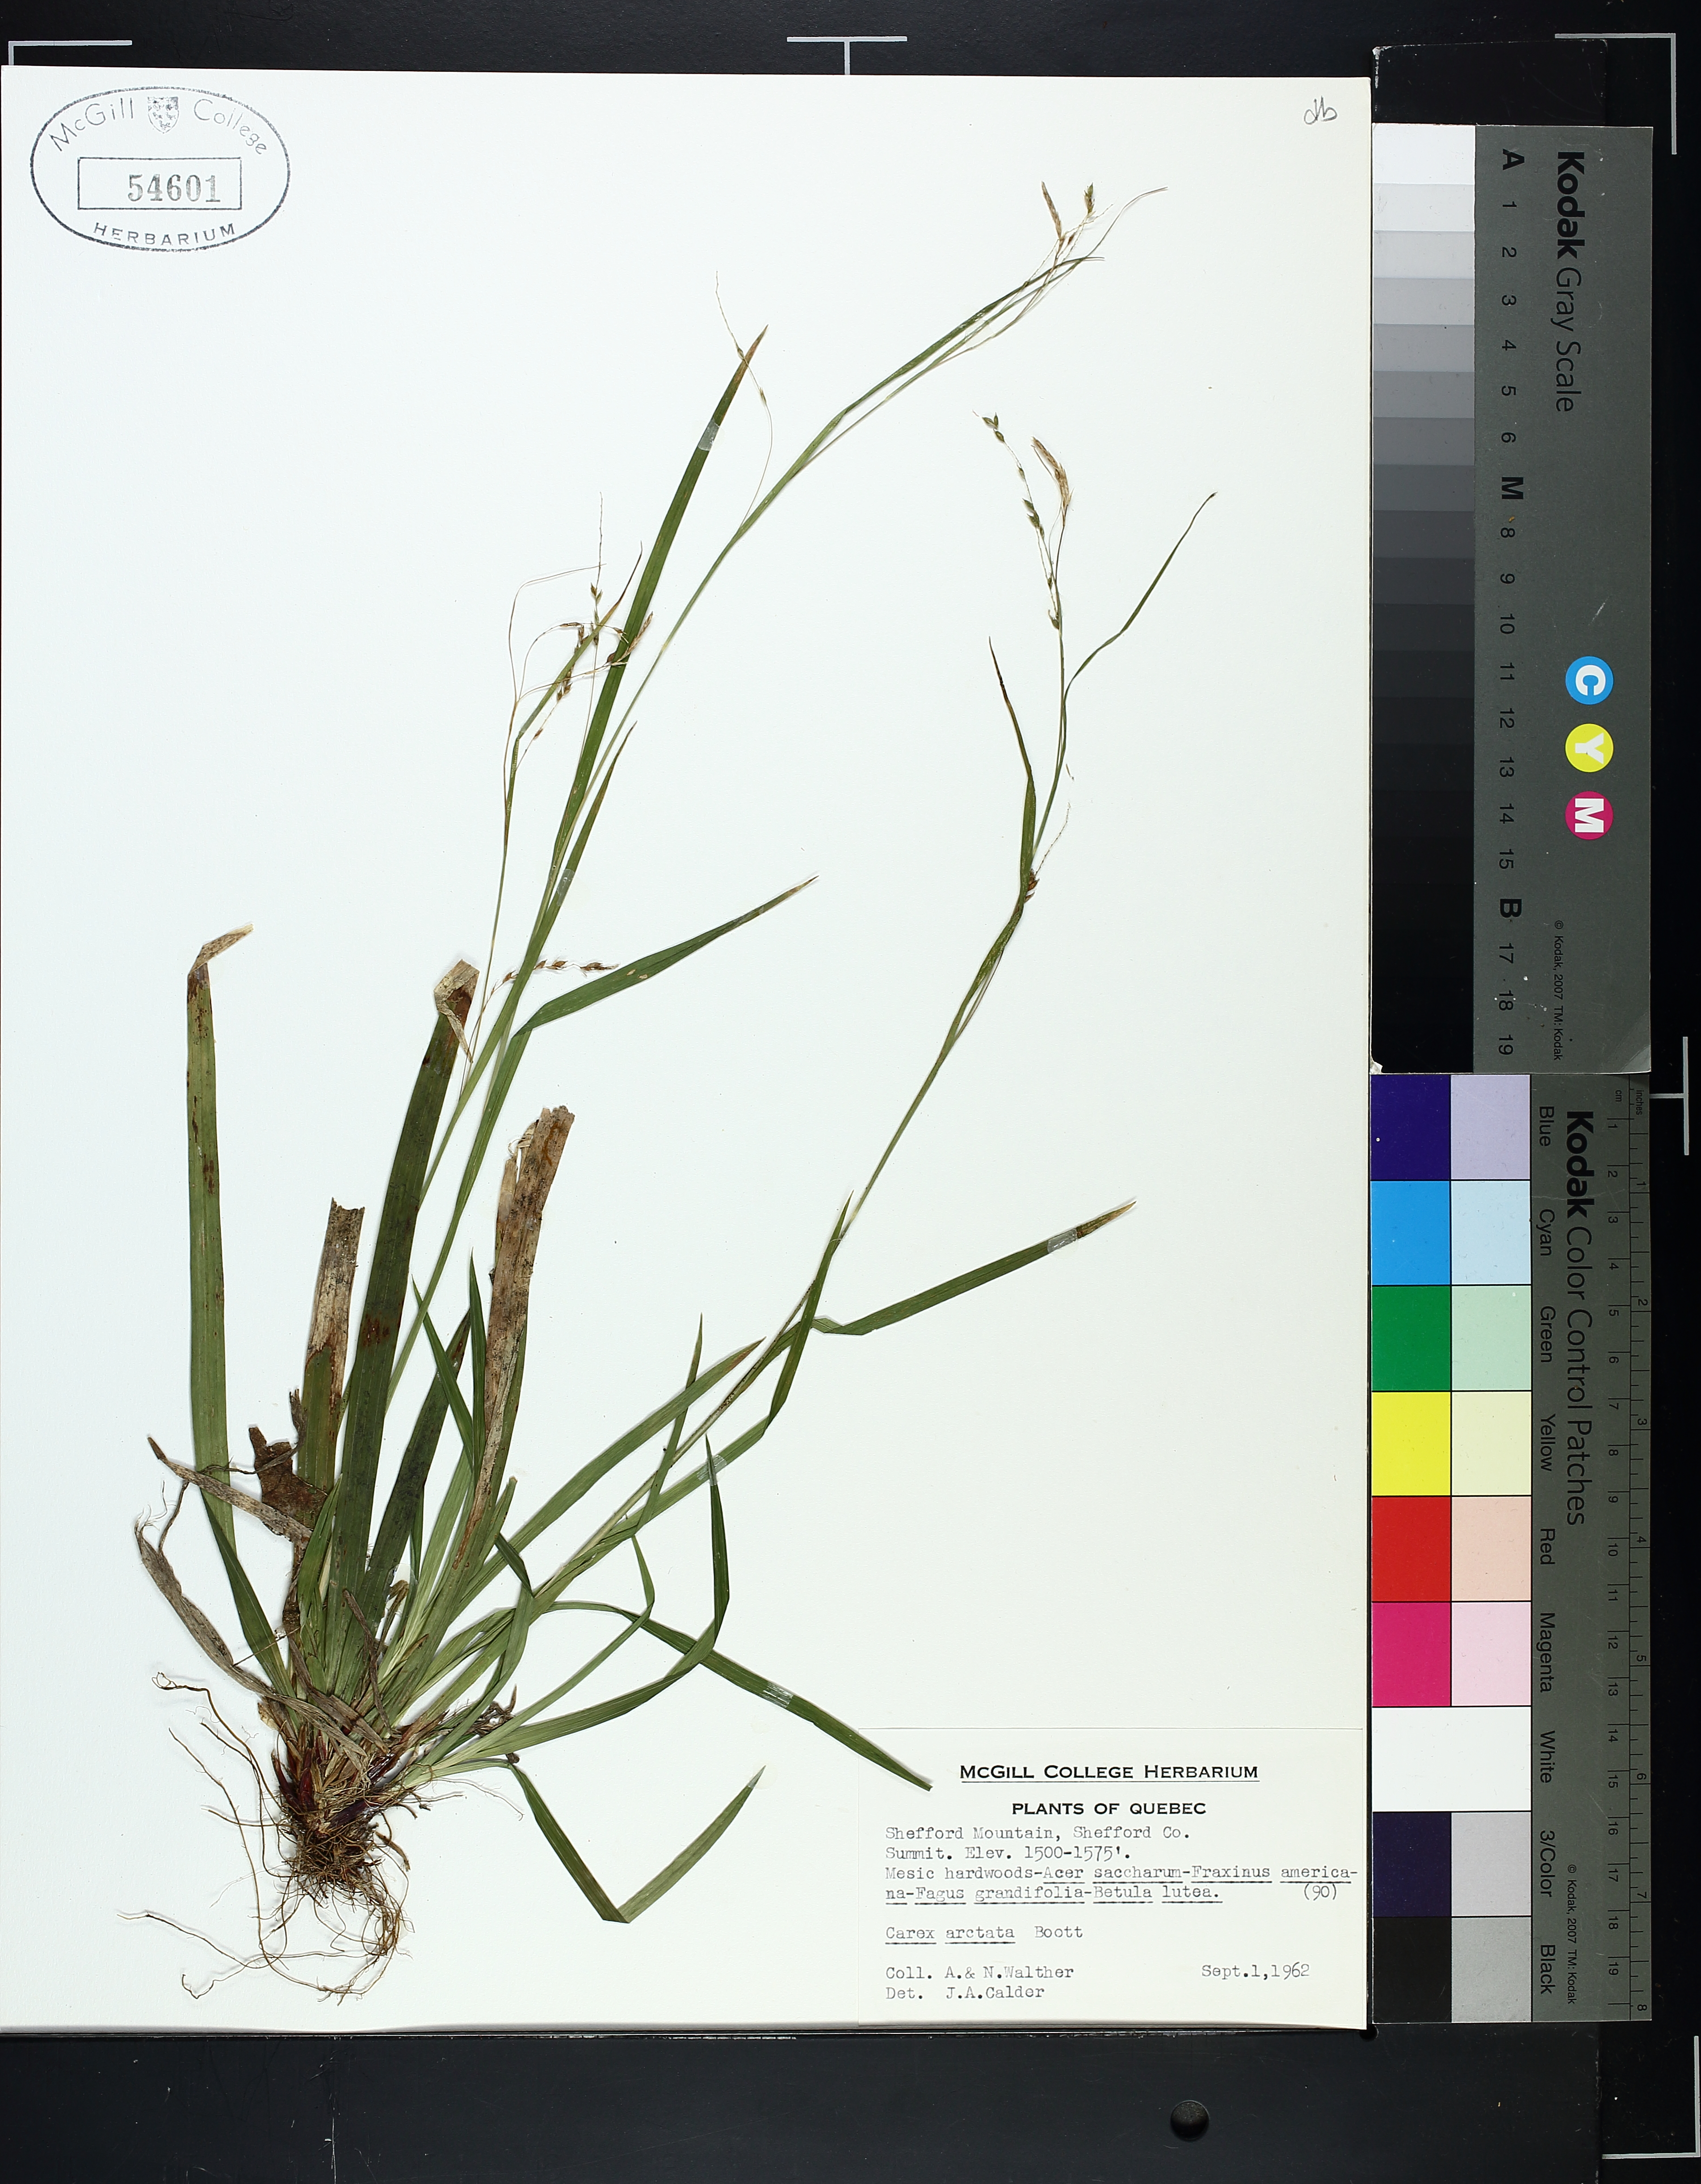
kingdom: Plantae
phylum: Tracheophyta
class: Liliopsida
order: Poales
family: Cyperaceae
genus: Carex
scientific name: Carex arctata
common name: Black sedge
